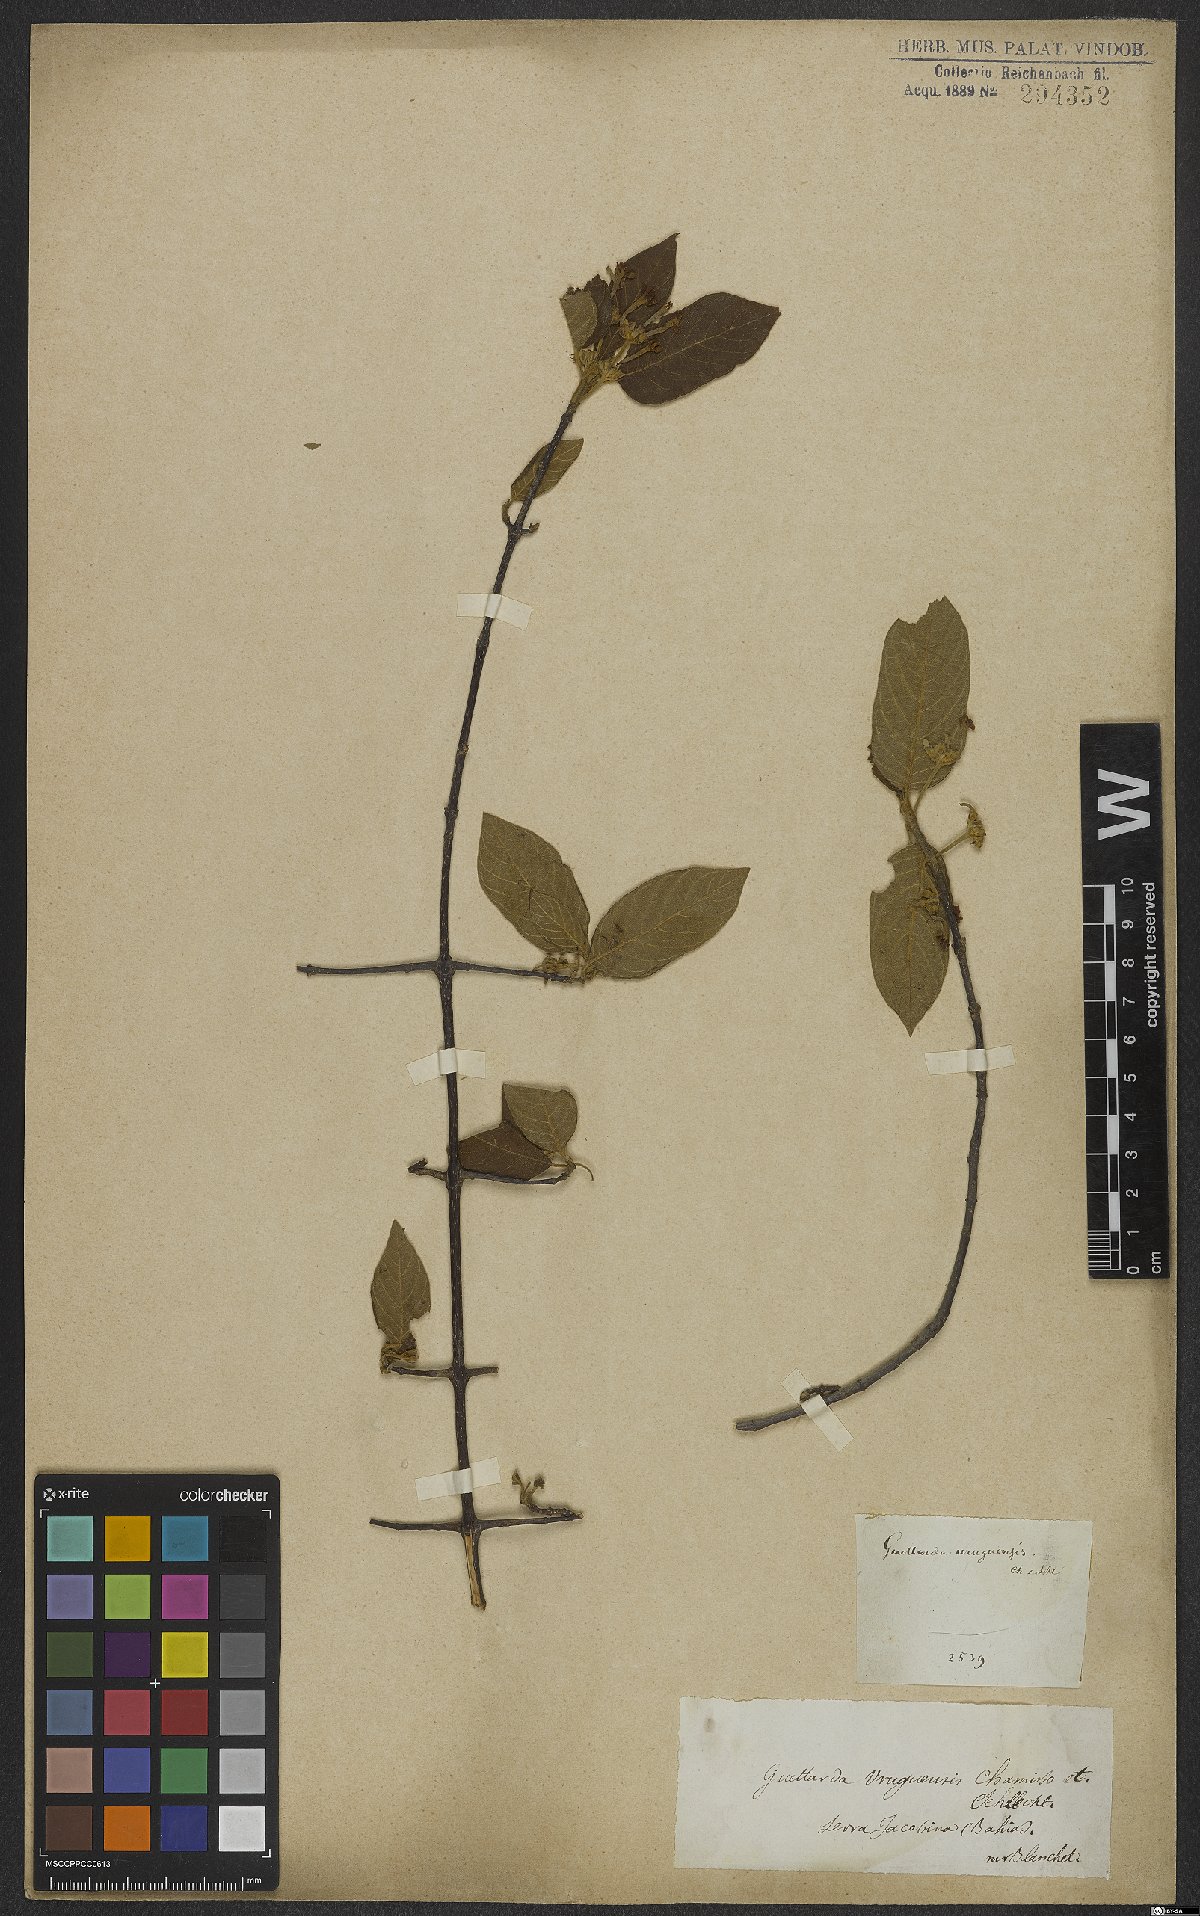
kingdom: Plantae
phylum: Tracheophyta
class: Magnoliopsida
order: Gentianales
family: Rubiaceae
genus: Guettarda
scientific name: Guettarda uruguensis
